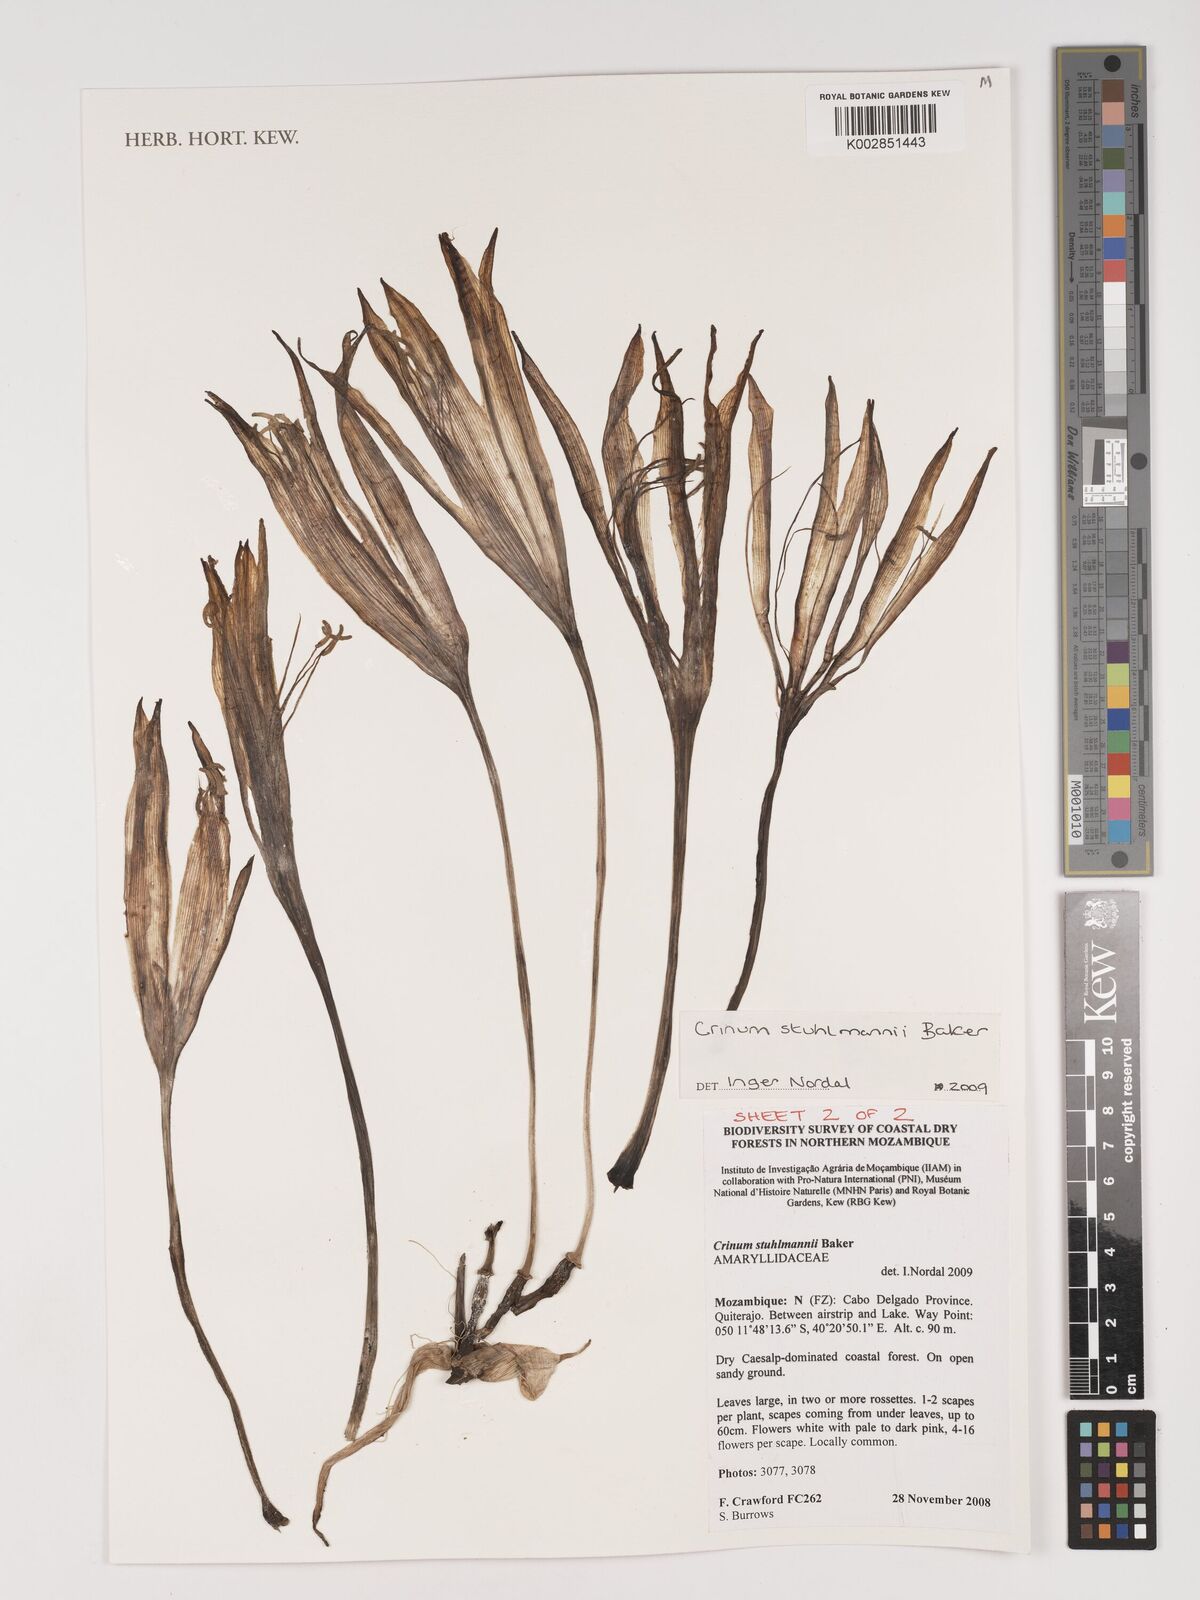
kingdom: Plantae
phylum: Tracheophyta
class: Liliopsida
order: Asparagales
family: Amaryllidaceae
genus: Crinum
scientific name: Crinum stuhlmannii
